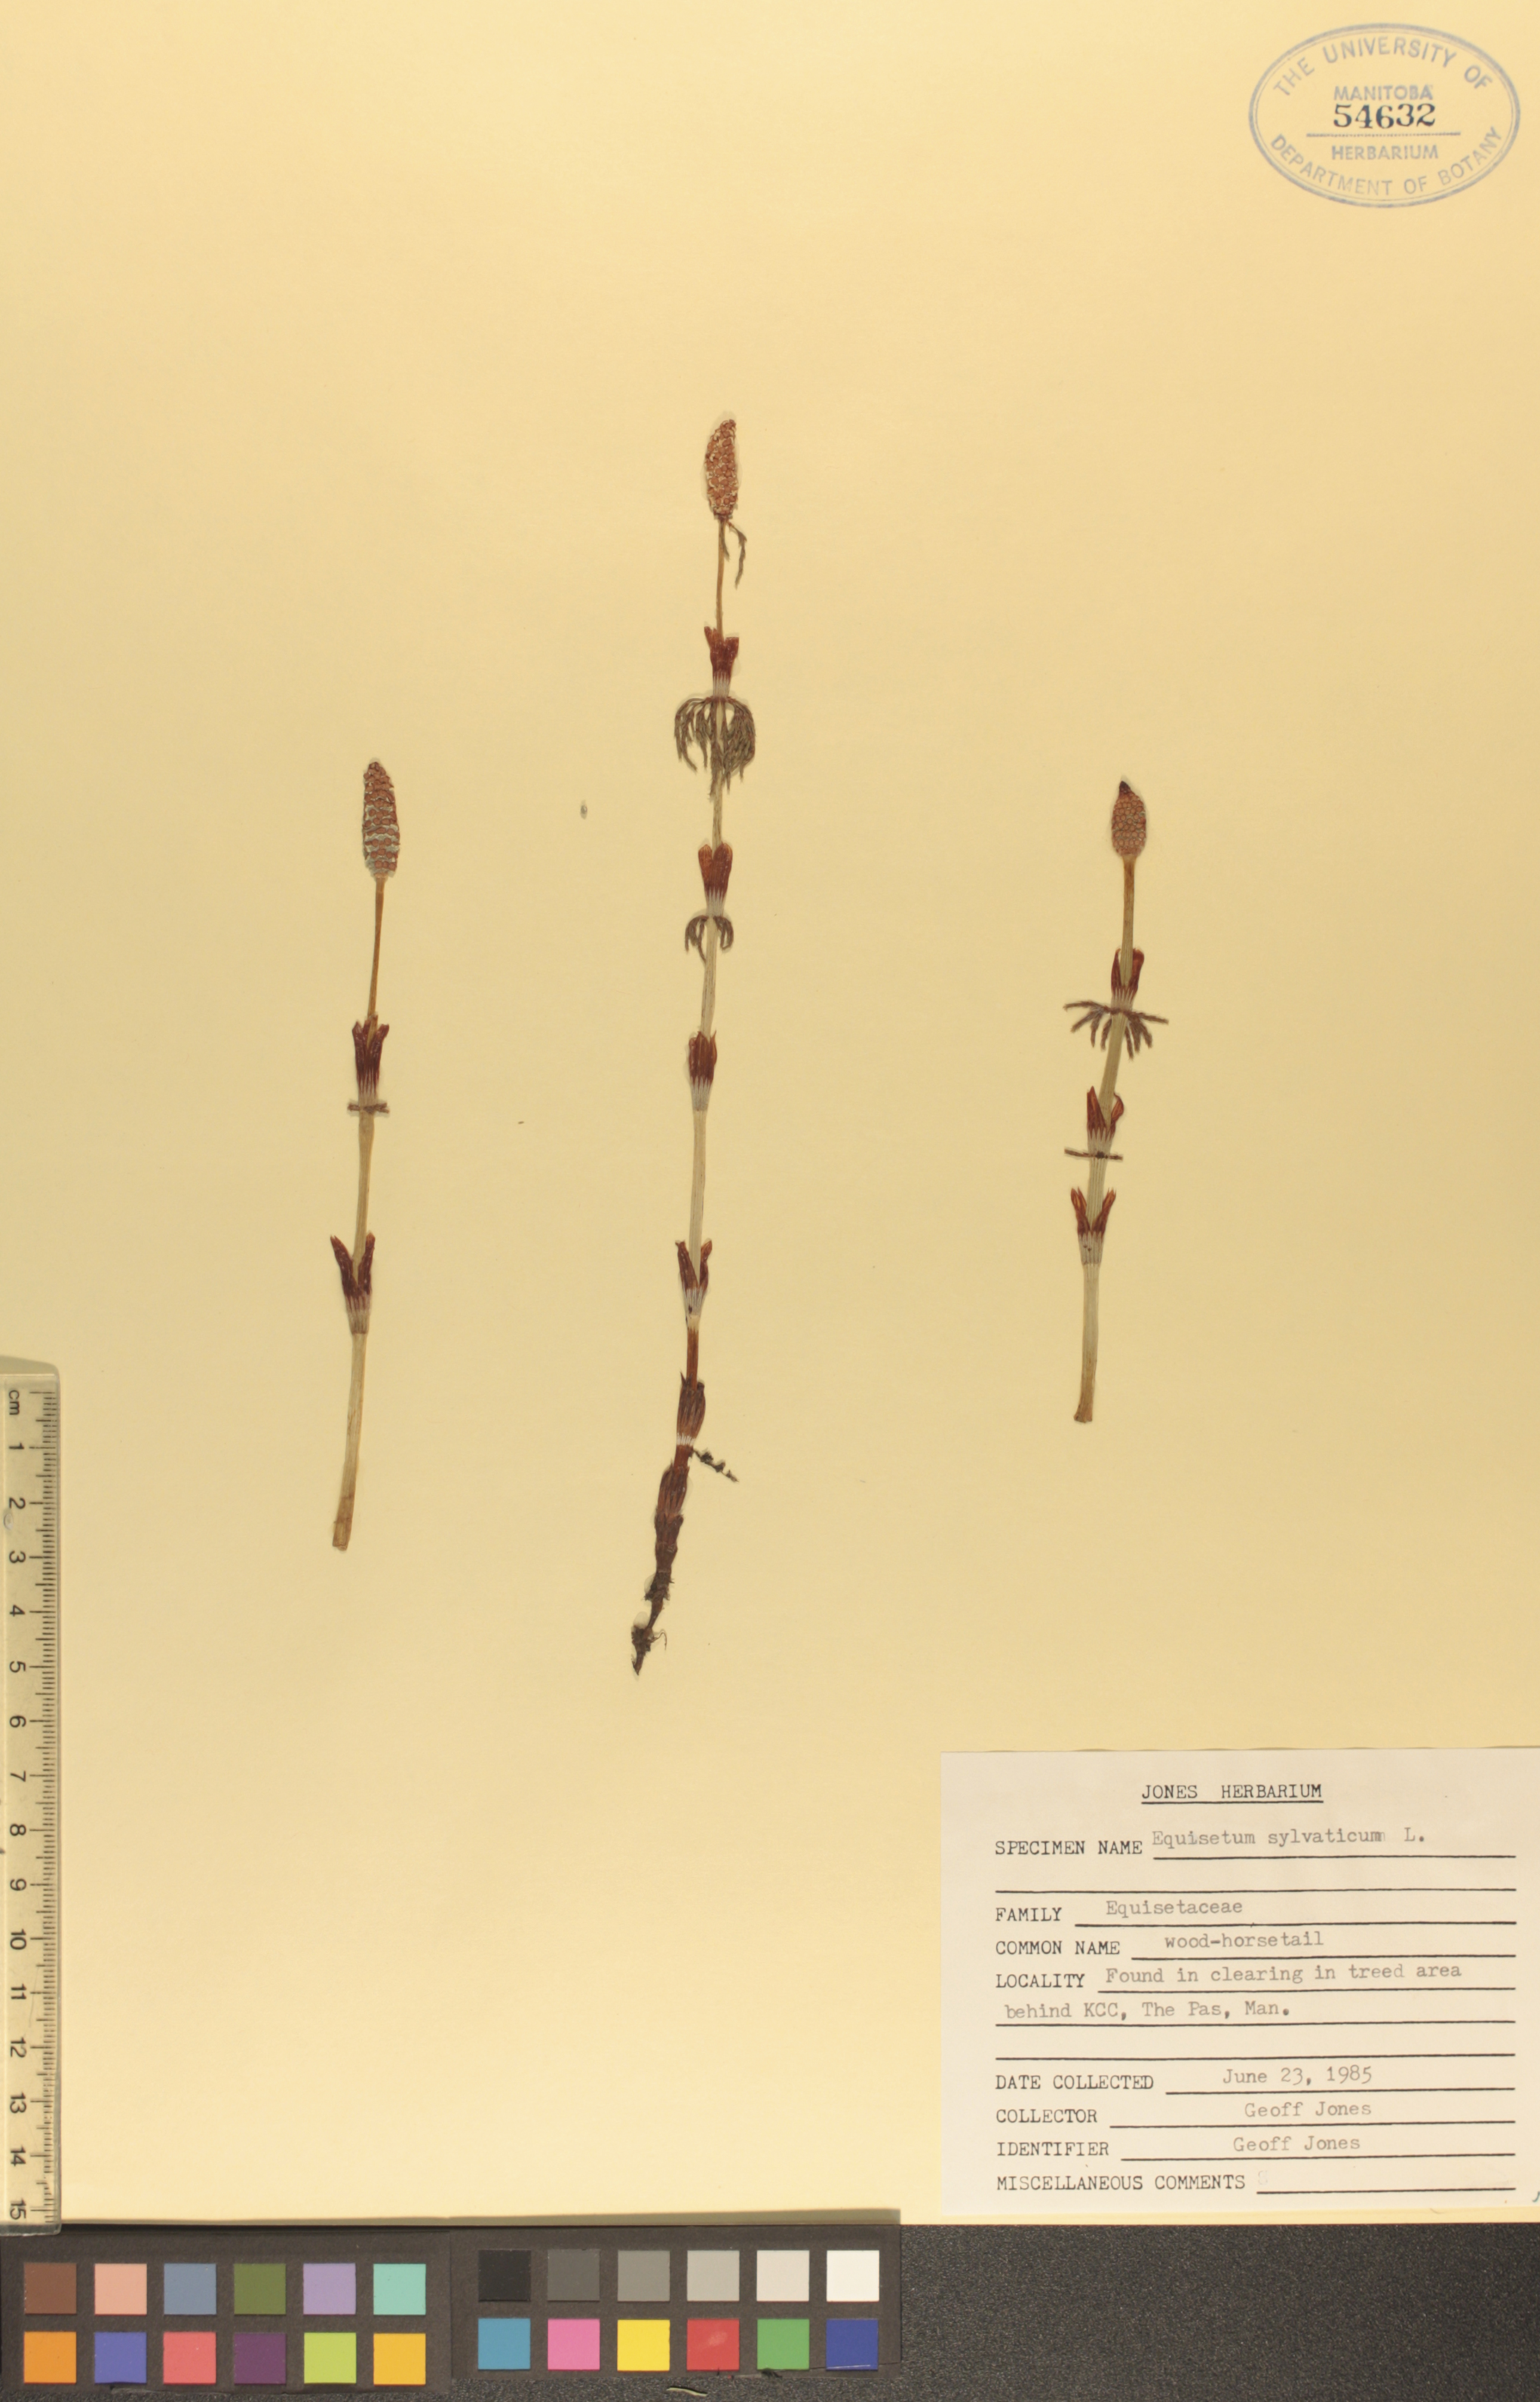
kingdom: Plantae
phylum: Tracheophyta
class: Polypodiopsida
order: Equisetales
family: Equisetaceae
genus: Equisetum
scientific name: Equisetum sylvaticum
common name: Wood horsetail
